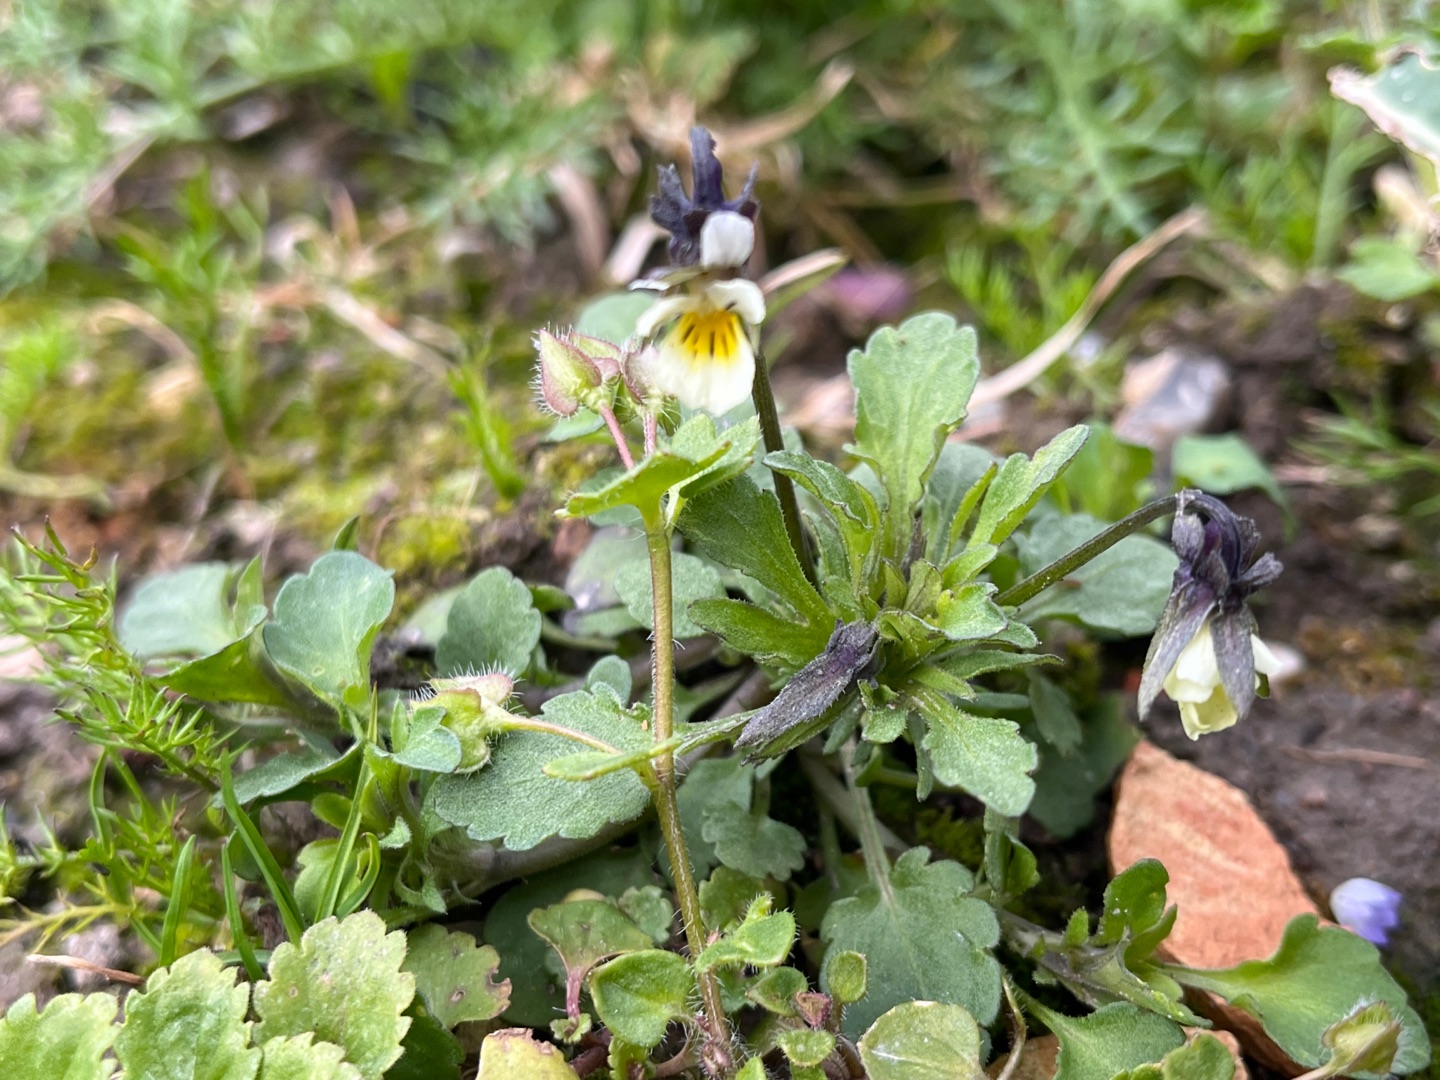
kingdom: Plantae
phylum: Tracheophyta
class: Magnoliopsida
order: Malpighiales
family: Violaceae
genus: Viola
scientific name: Viola arvensis
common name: Ager-stedmoderblomst
